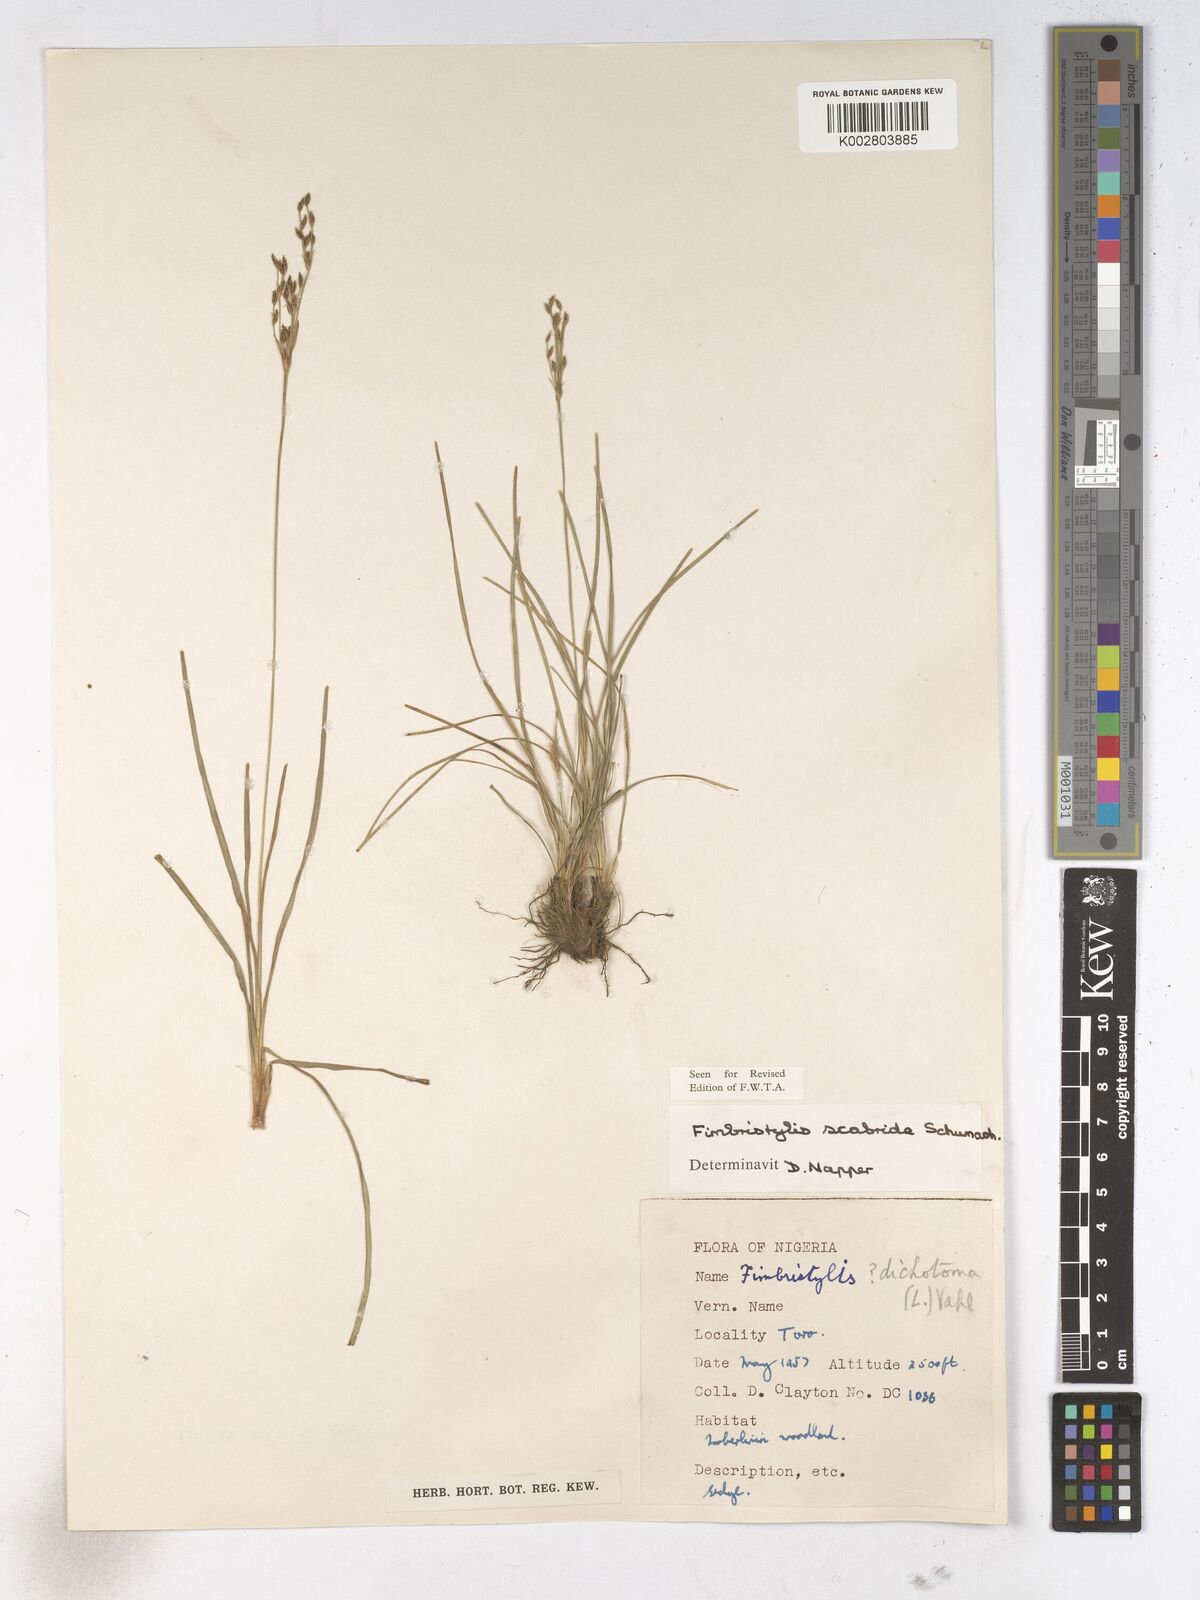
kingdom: Plantae
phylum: Tracheophyta
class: Liliopsida
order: Poales
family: Cyperaceae
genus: Fimbristylis
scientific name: Fimbristylis scabrida
